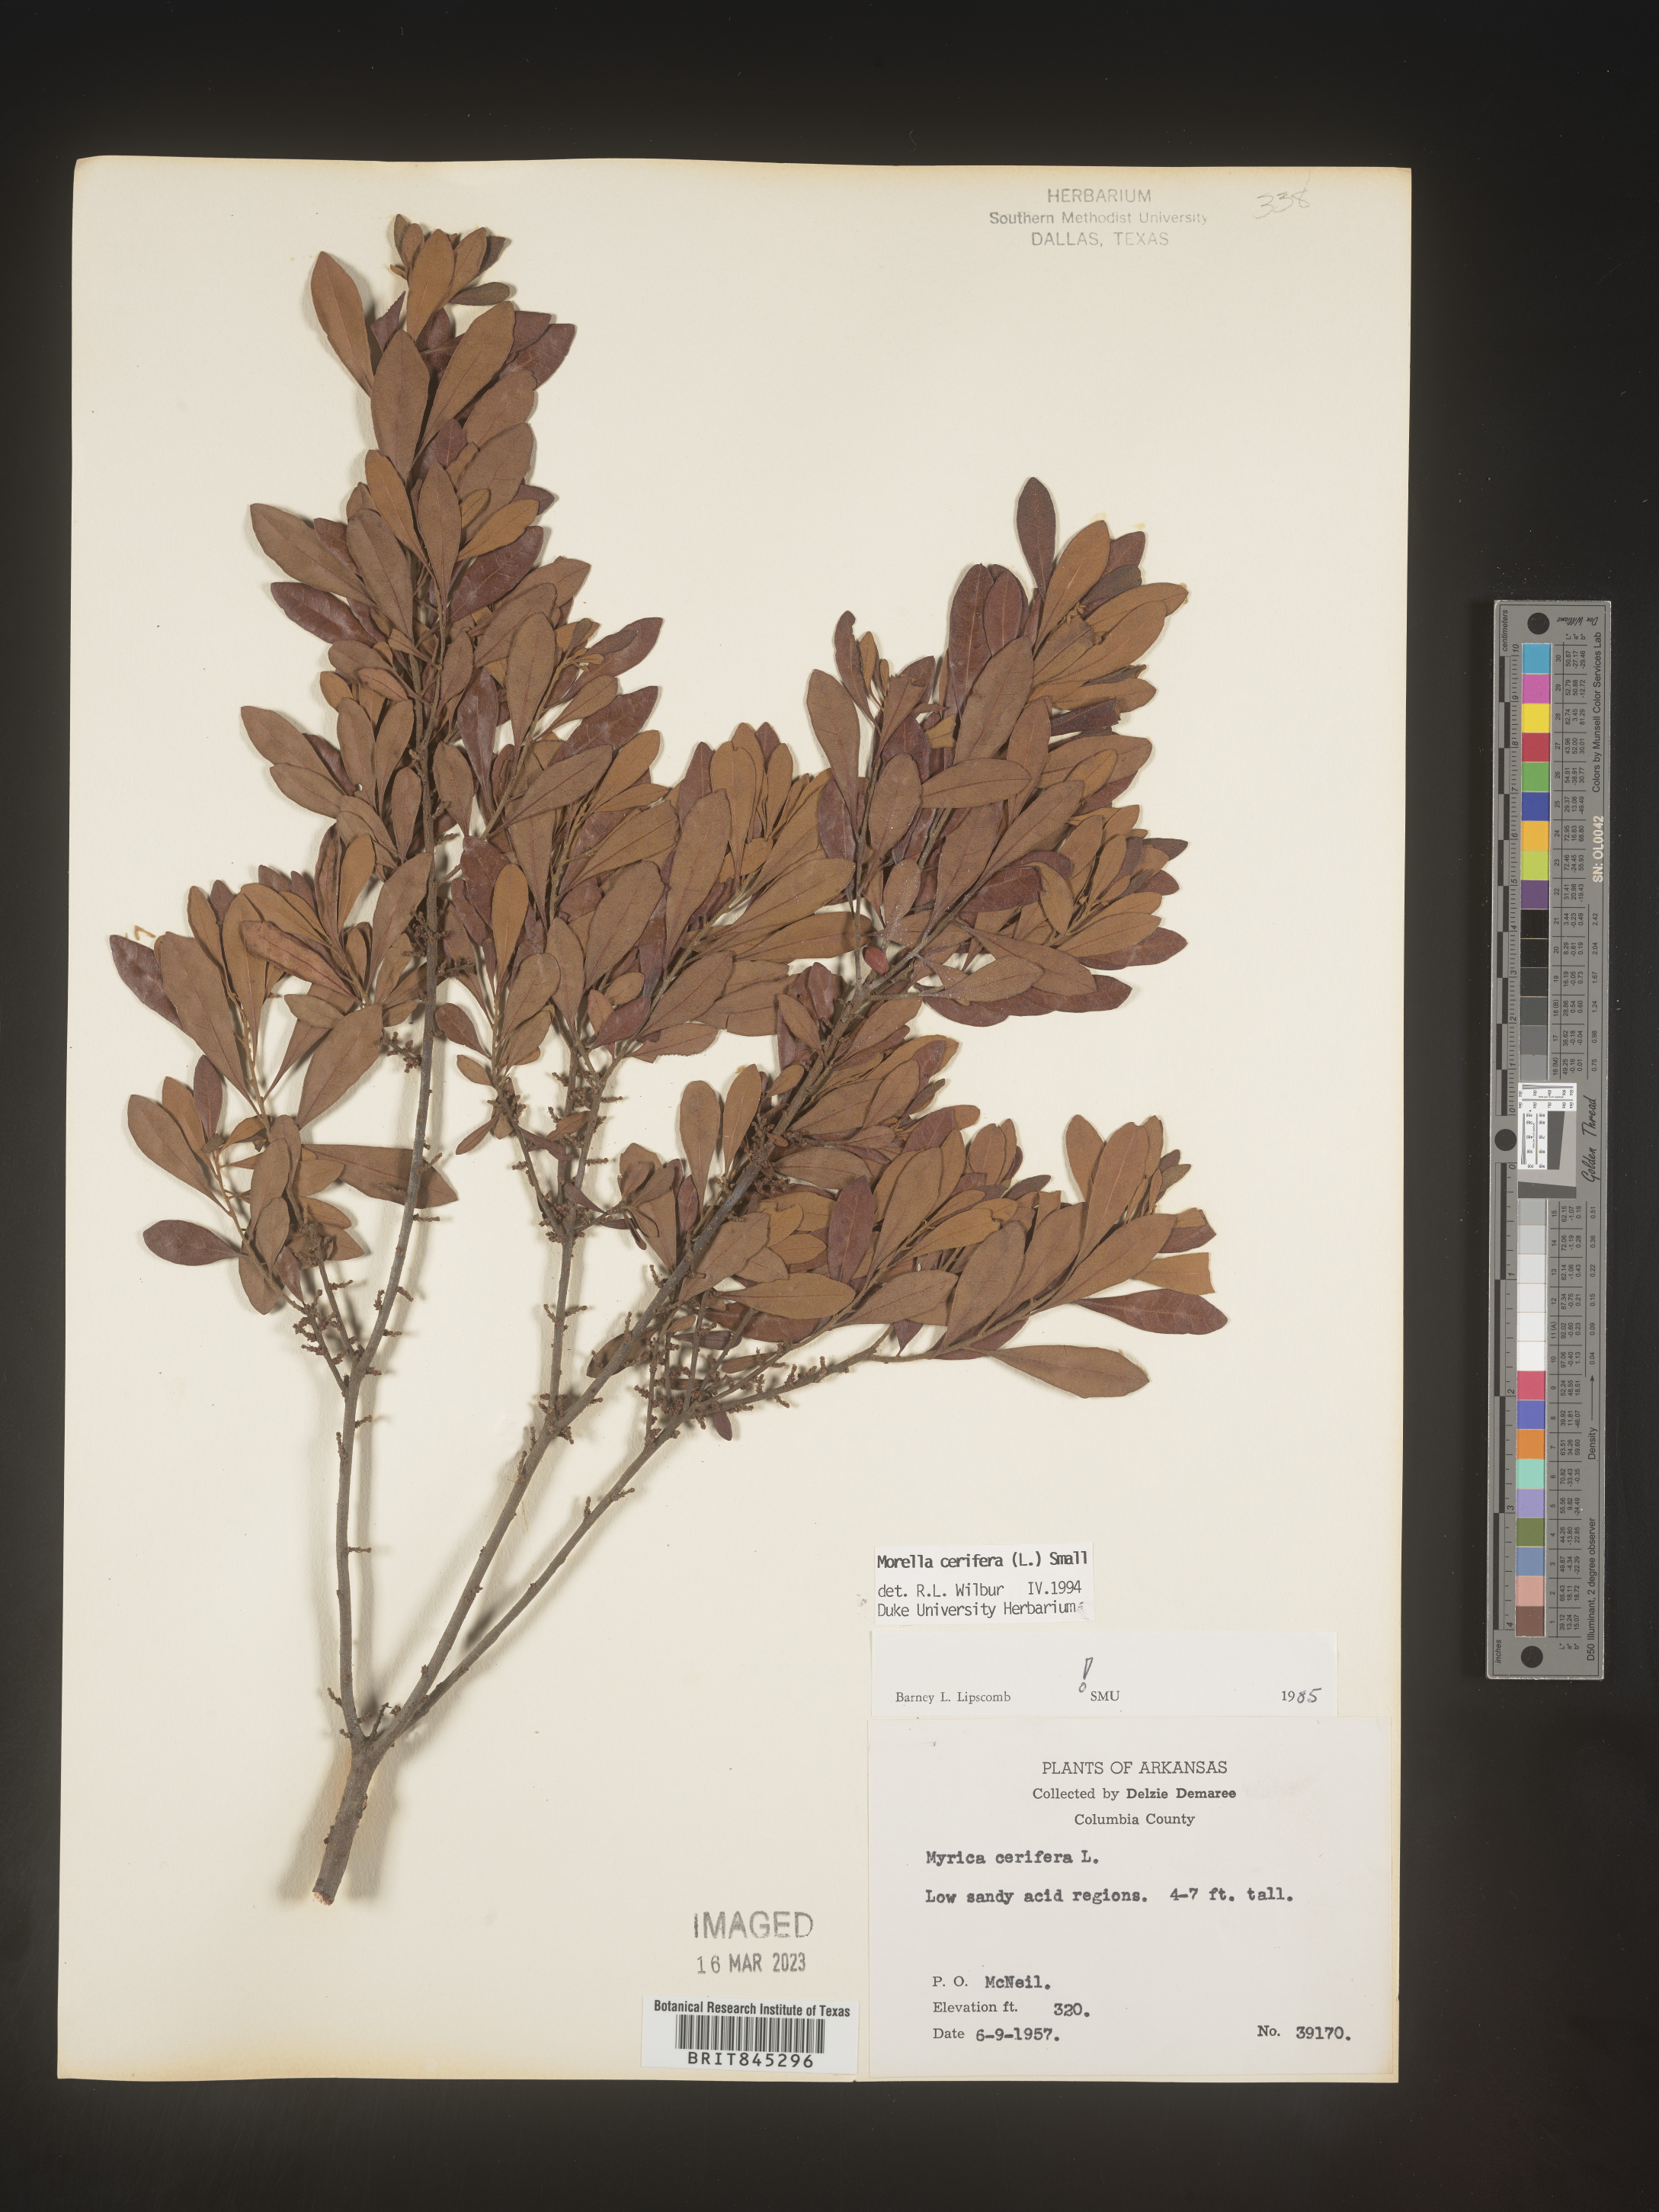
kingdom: Plantae
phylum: Tracheophyta
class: Magnoliopsida
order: Fagales
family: Myricaceae
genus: Morella
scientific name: Morella cerifera
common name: Wax myrtle
